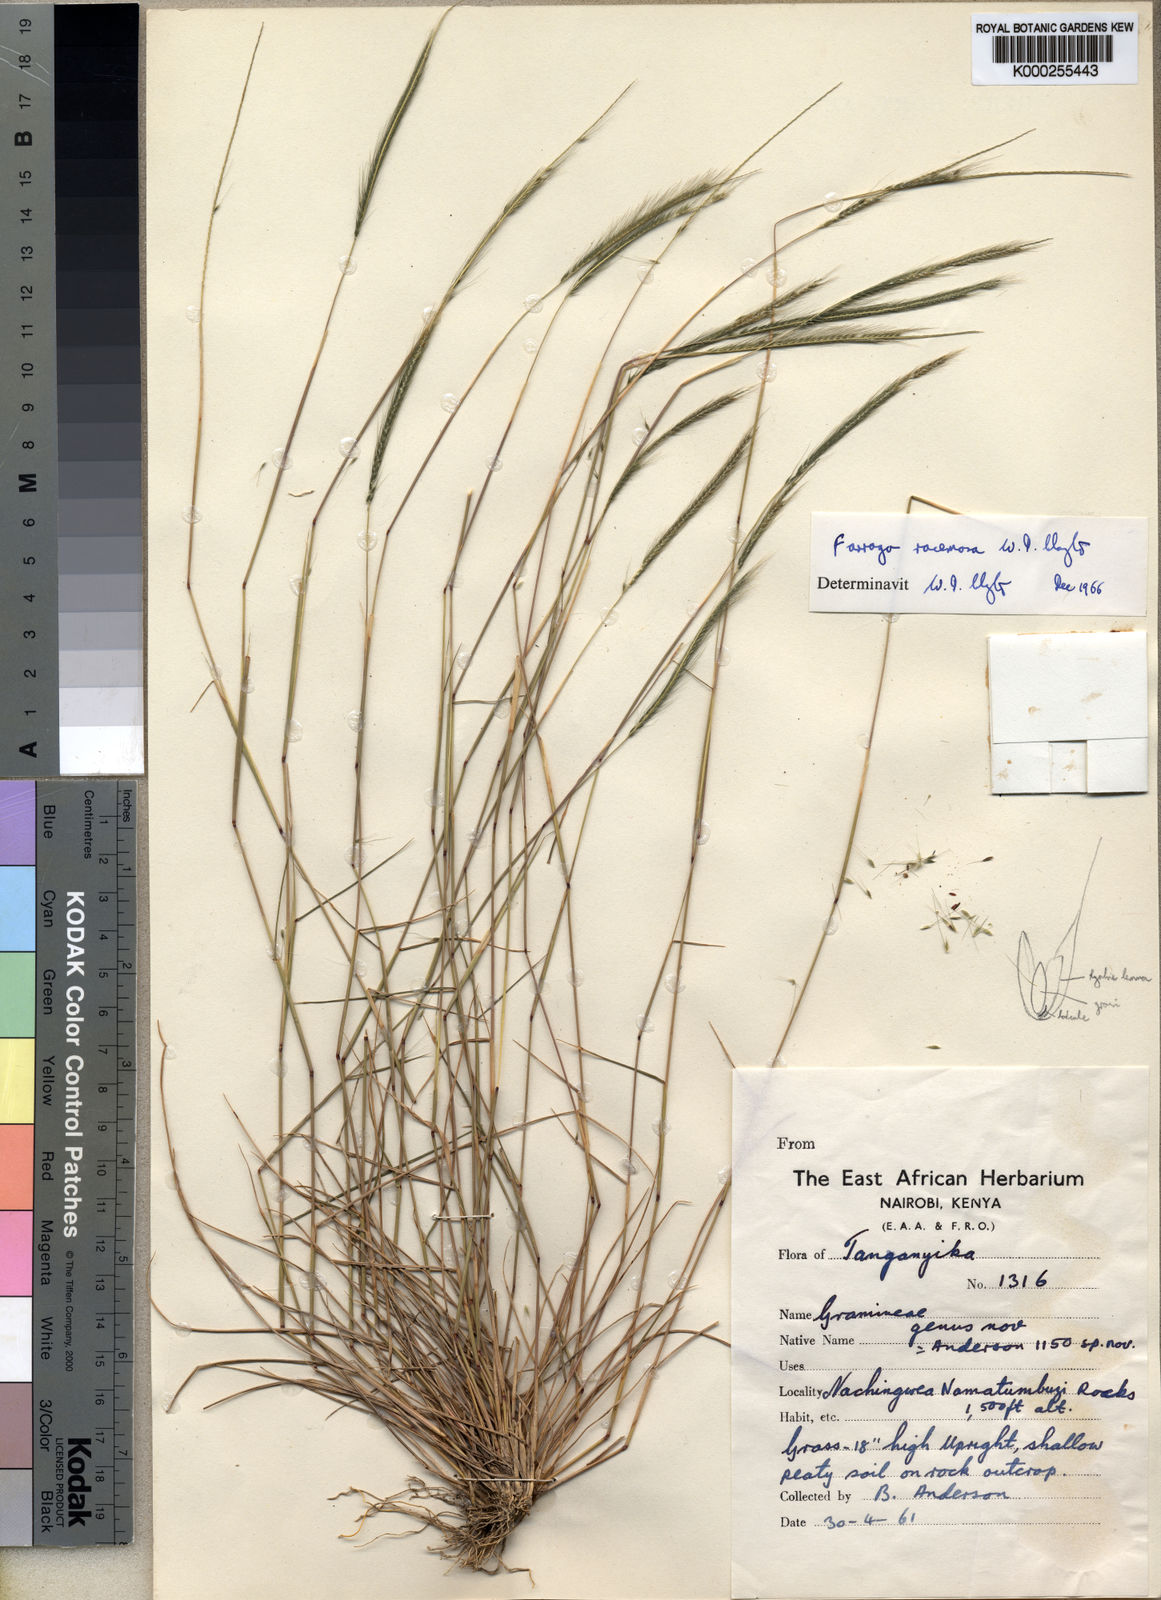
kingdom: Plantae
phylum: Tracheophyta
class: Liliopsida
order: Poales
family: Poaceae
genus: Farrago
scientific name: Farrago racemosa
